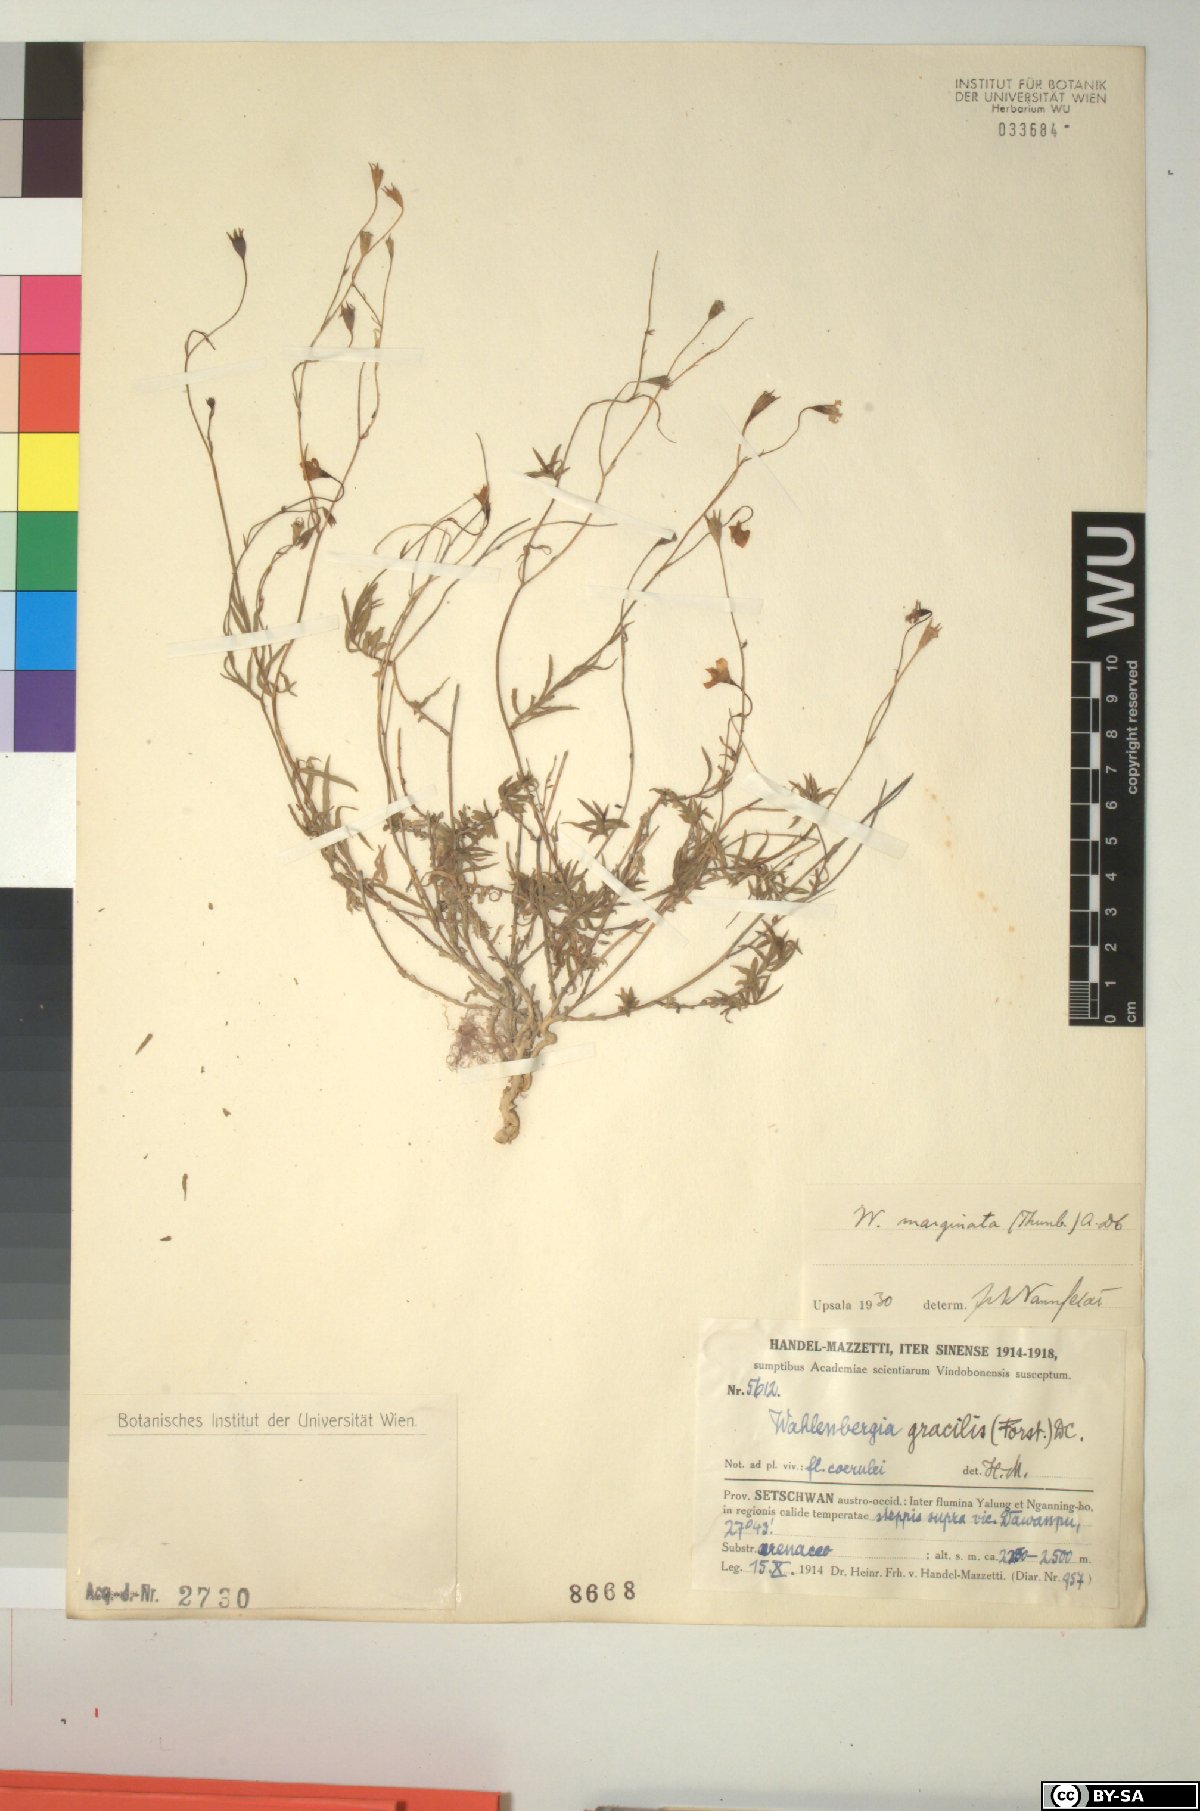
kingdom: Plantae
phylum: Tracheophyta
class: Magnoliopsida
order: Asterales
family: Campanulaceae
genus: Wahlenbergia
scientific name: Wahlenbergia marginata
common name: Southern rockbell
